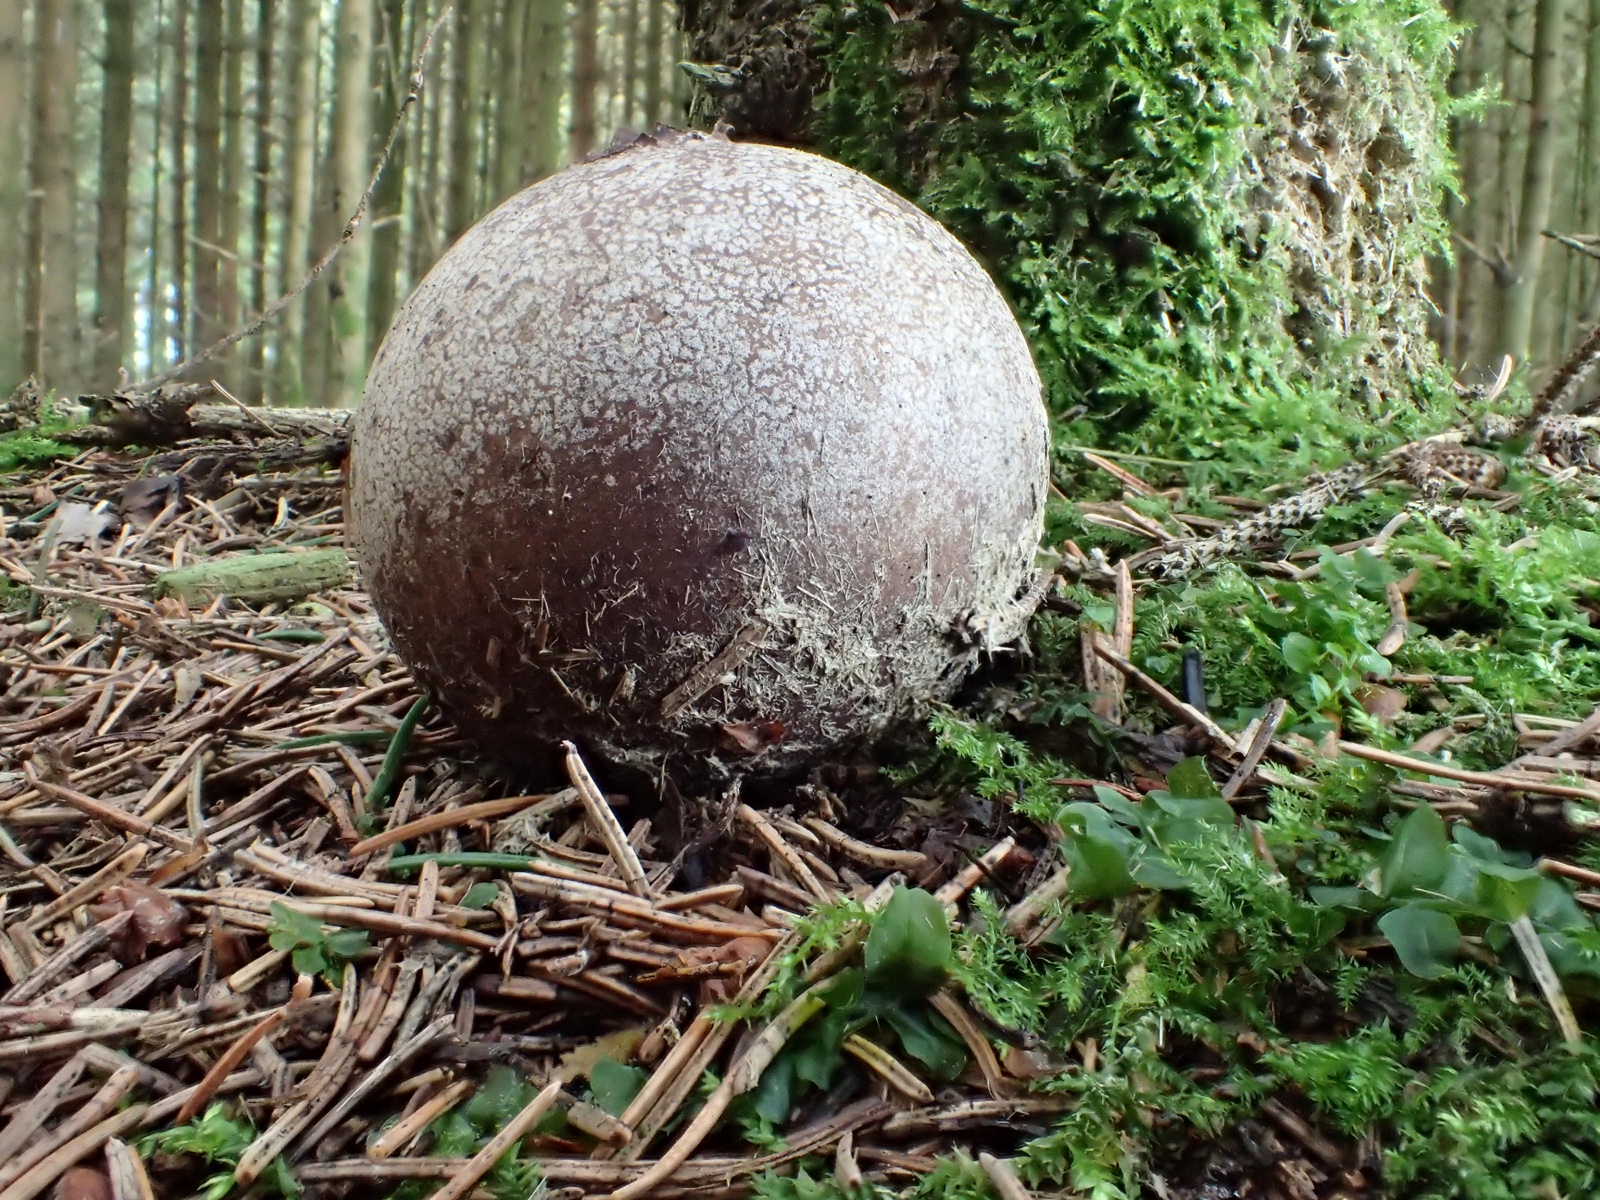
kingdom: Fungi
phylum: Basidiomycota
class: Agaricomycetes
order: Agaricales
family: Lycoperdaceae
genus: Bovista
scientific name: Bovista
